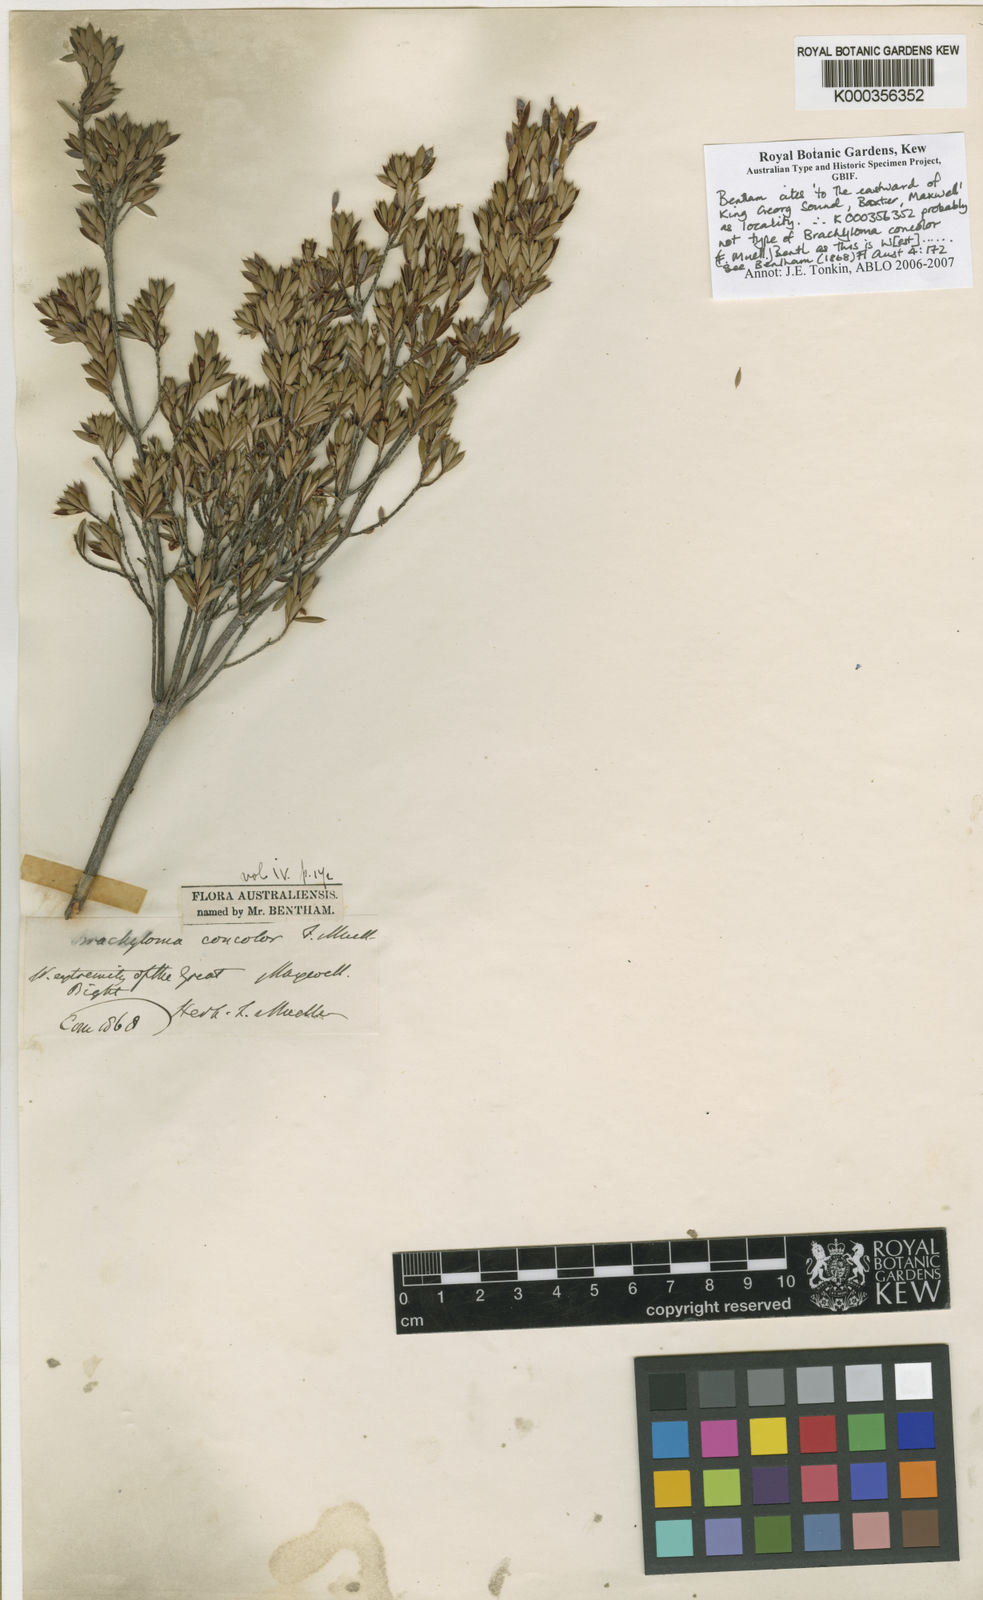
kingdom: Plantae
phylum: Tracheophyta
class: Magnoliopsida
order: Ericales
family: Ericaceae
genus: Brachyloma
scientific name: Brachyloma geissoloma
